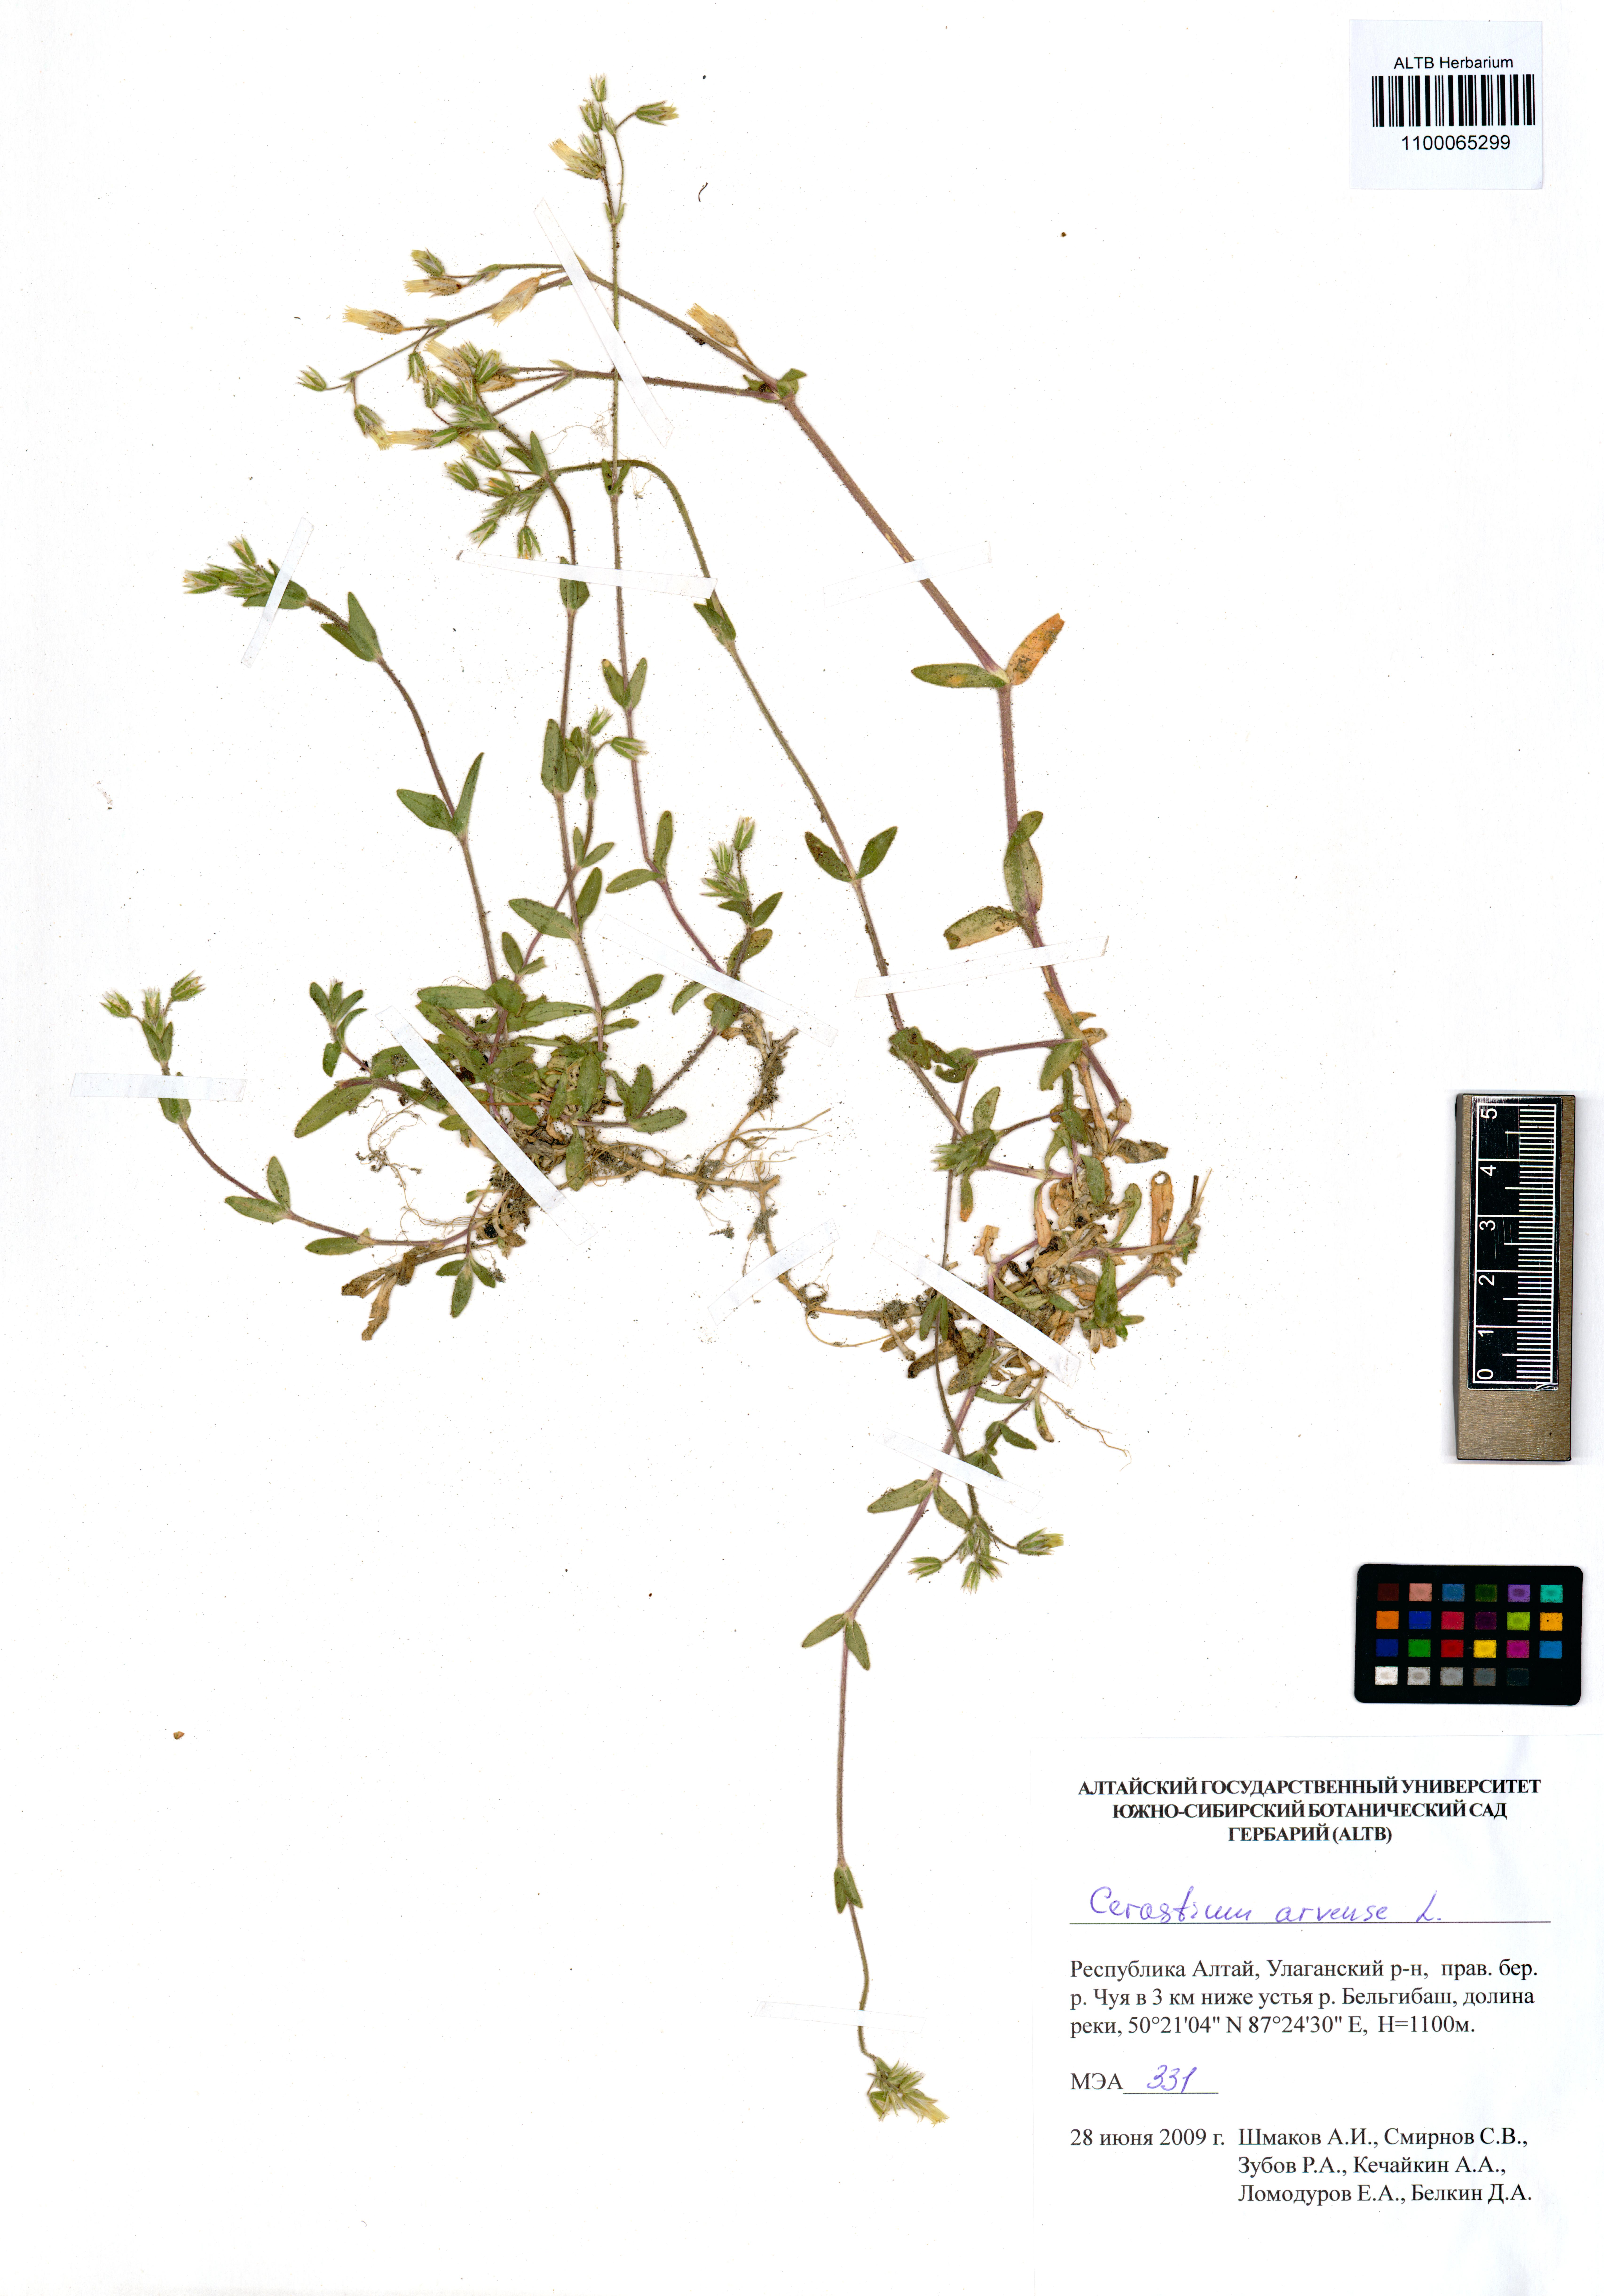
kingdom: Plantae
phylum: Tracheophyta
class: Magnoliopsida
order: Caryophyllales
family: Caryophyllaceae
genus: Cerastium
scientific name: Cerastium arvense
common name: Field mouse-ear
